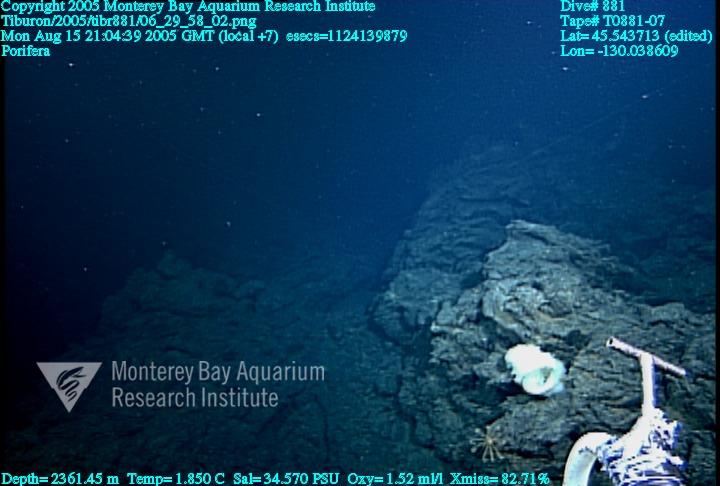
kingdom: Animalia
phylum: Porifera
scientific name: Porifera
